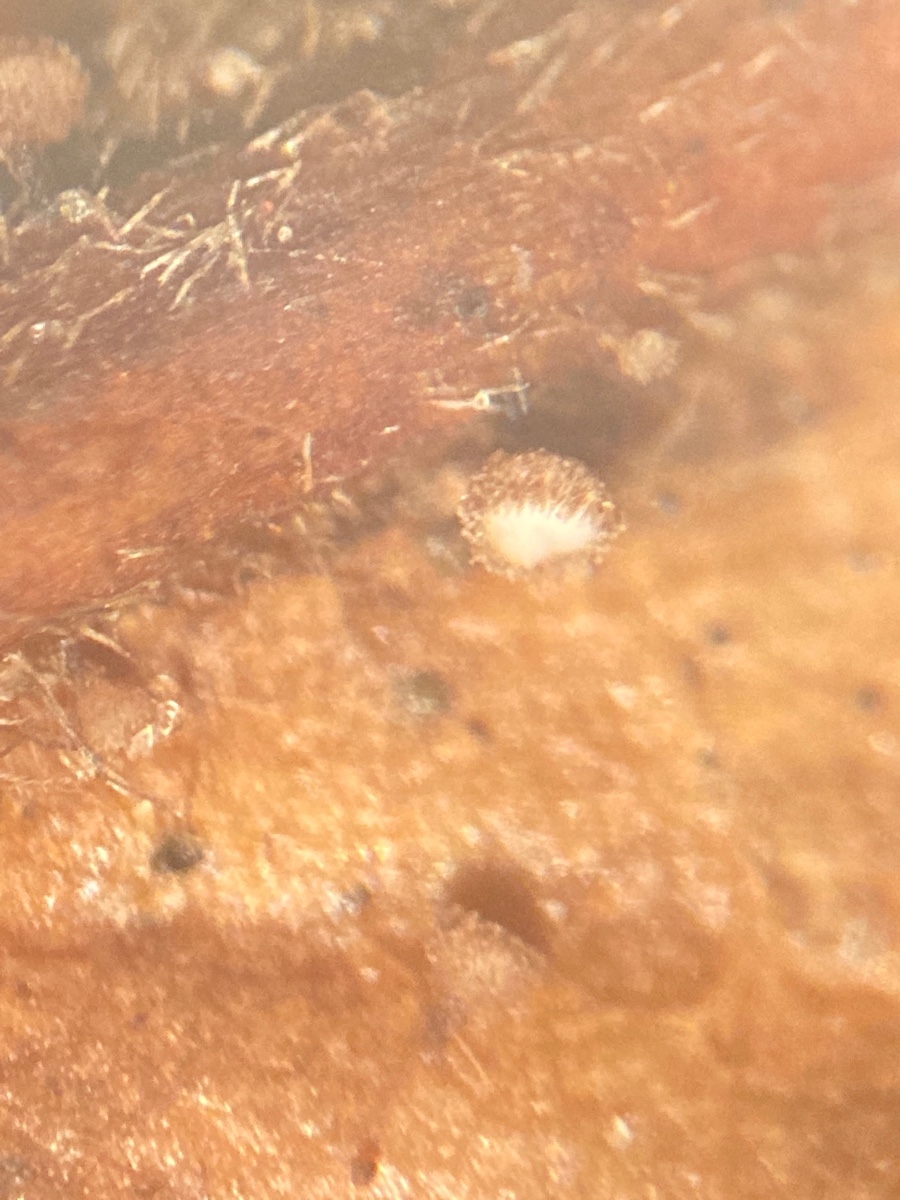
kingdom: Fungi
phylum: Ascomycota
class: Leotiomycetes
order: Helotiales
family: Lachnaceae
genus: Brunnipila
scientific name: Brunnipila fuscescens
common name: bøge-frynseskive
